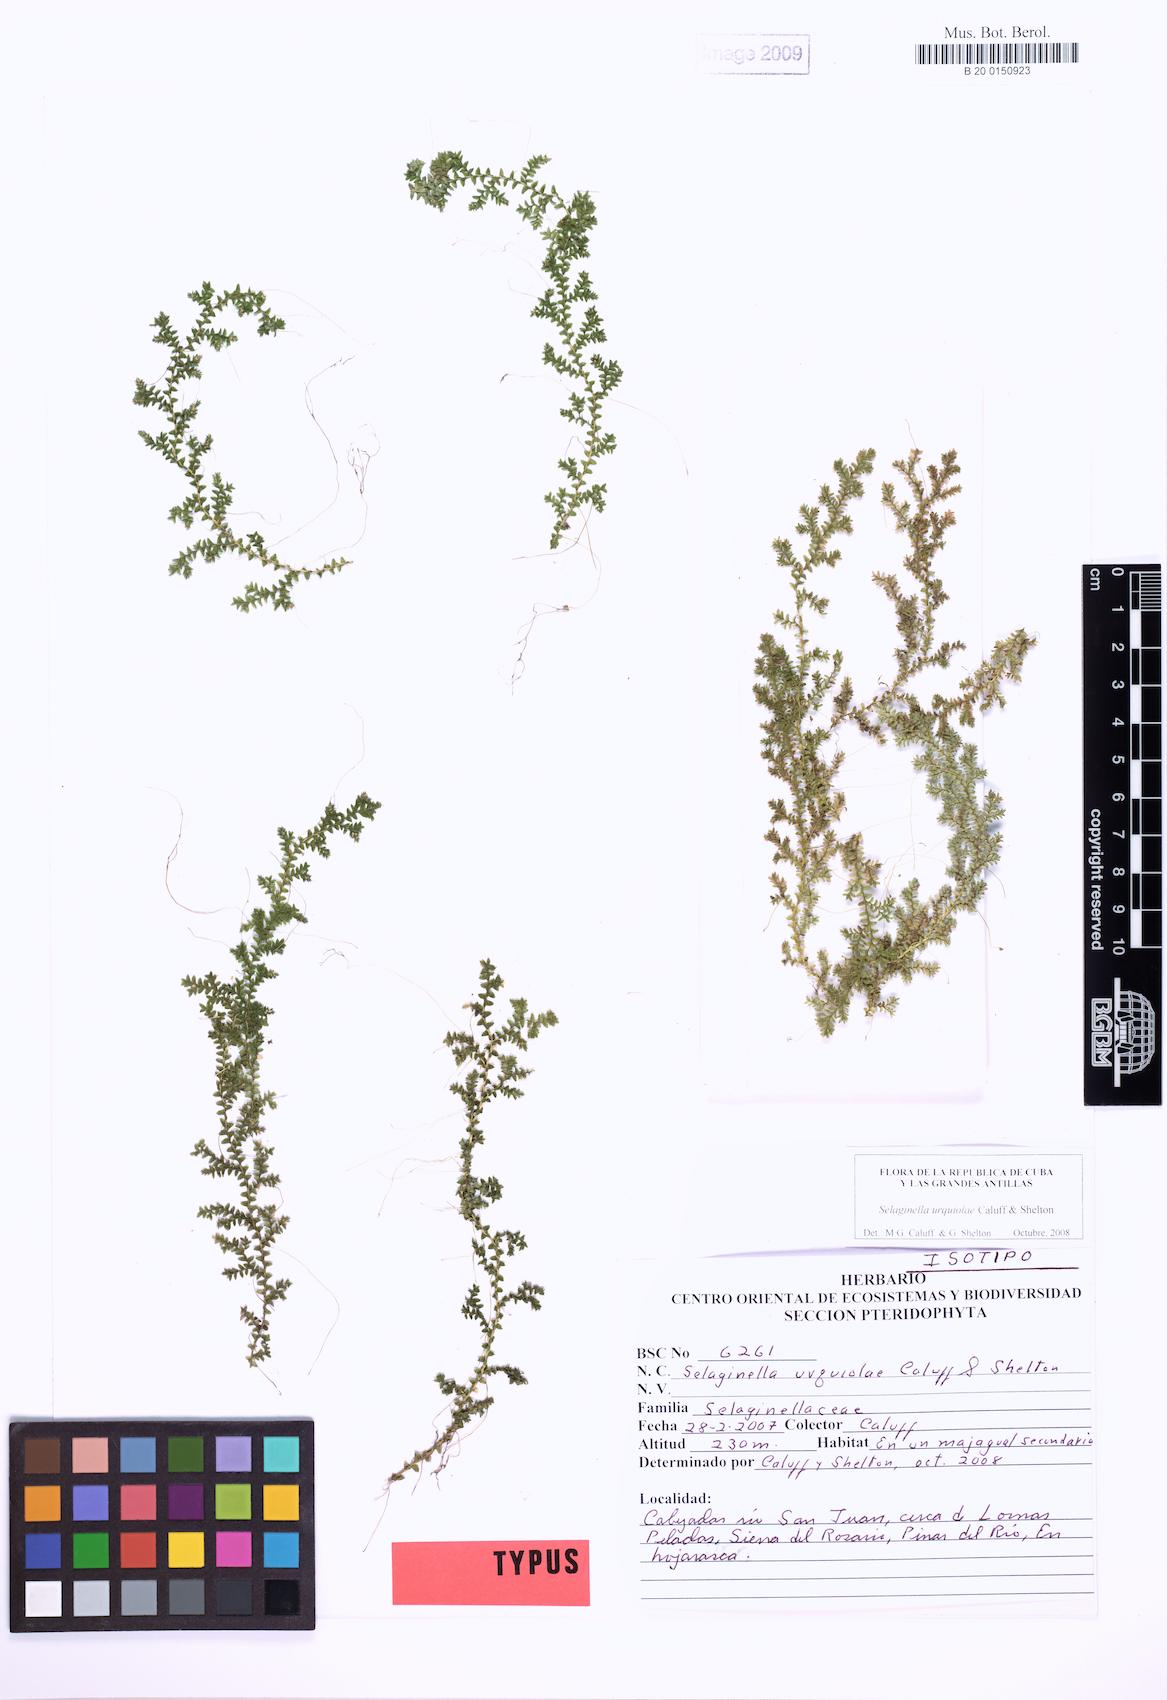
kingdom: Plantae
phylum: Tracheophyta
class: Lycopodiopsida
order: Selaginellales
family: Selaginellaceae
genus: Selaginella
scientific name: Selaginella urquiolae
